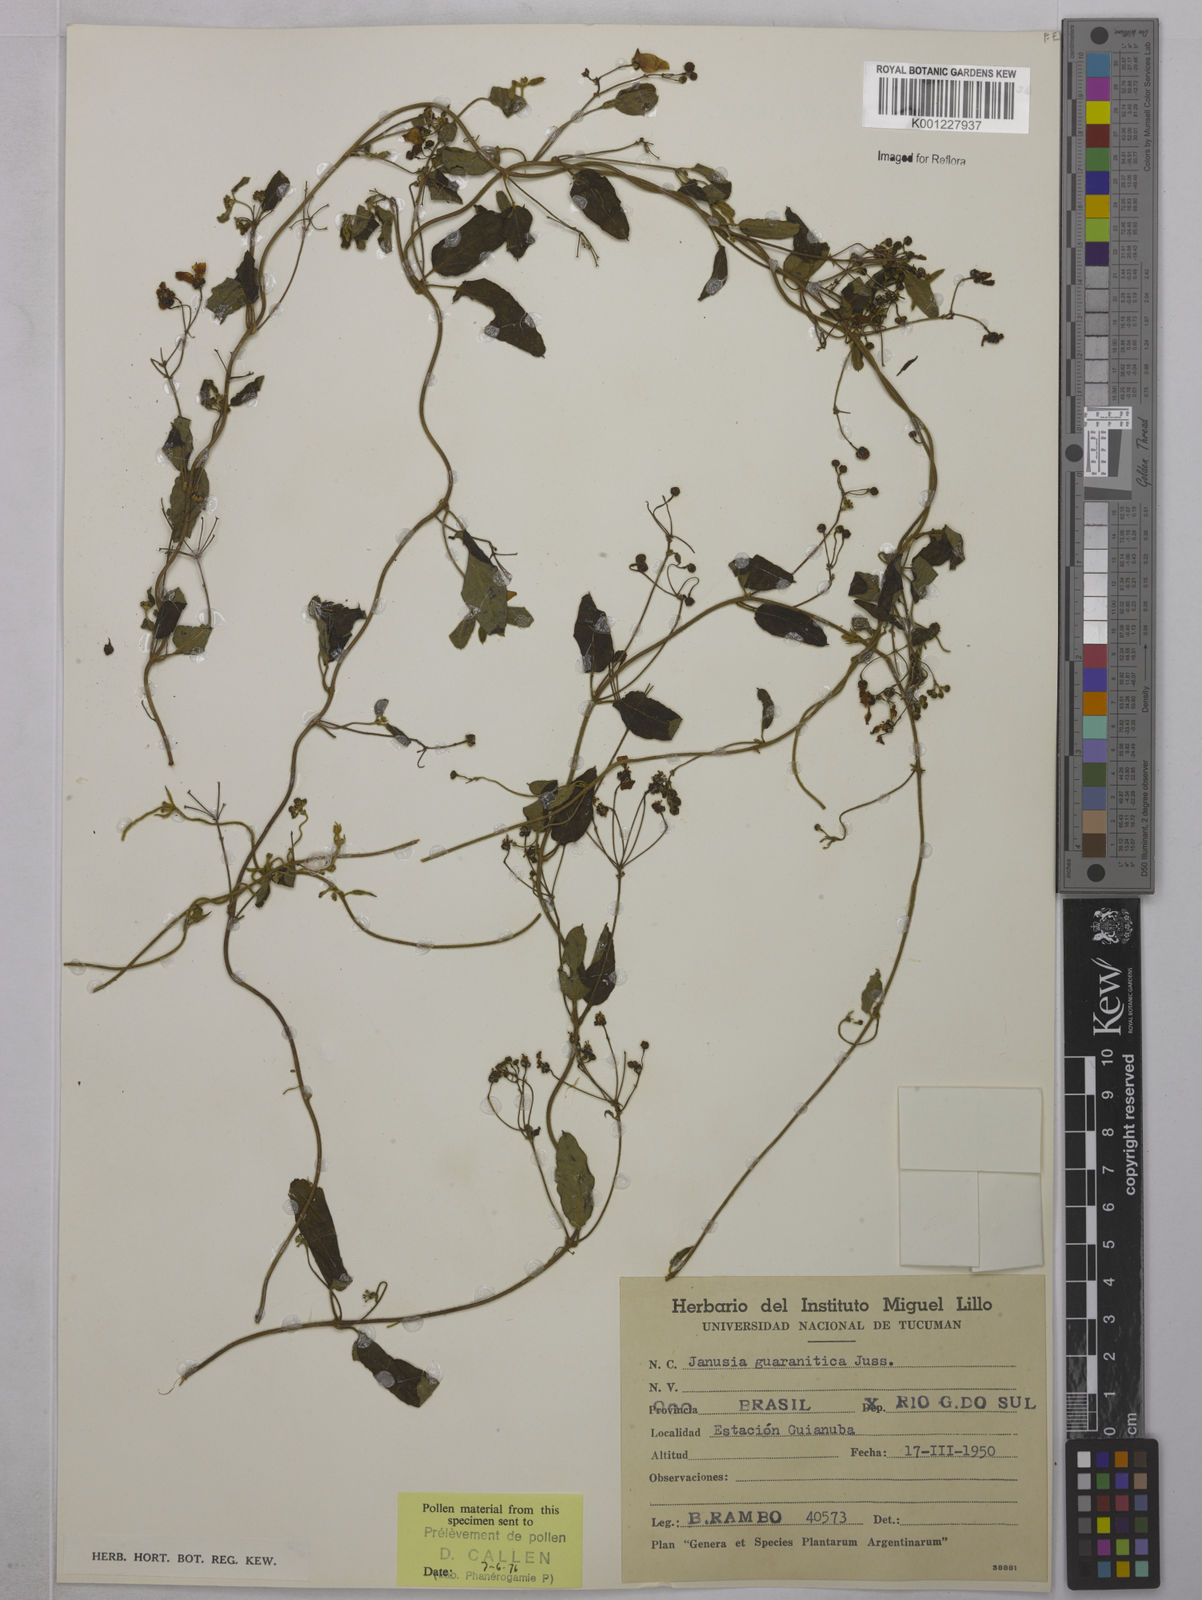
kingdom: Plantae
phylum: Tracheophyta
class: Magnoliopsida
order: Malpighiales
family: Malpighiaceae
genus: Janusia
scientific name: Janusia guaranitica
